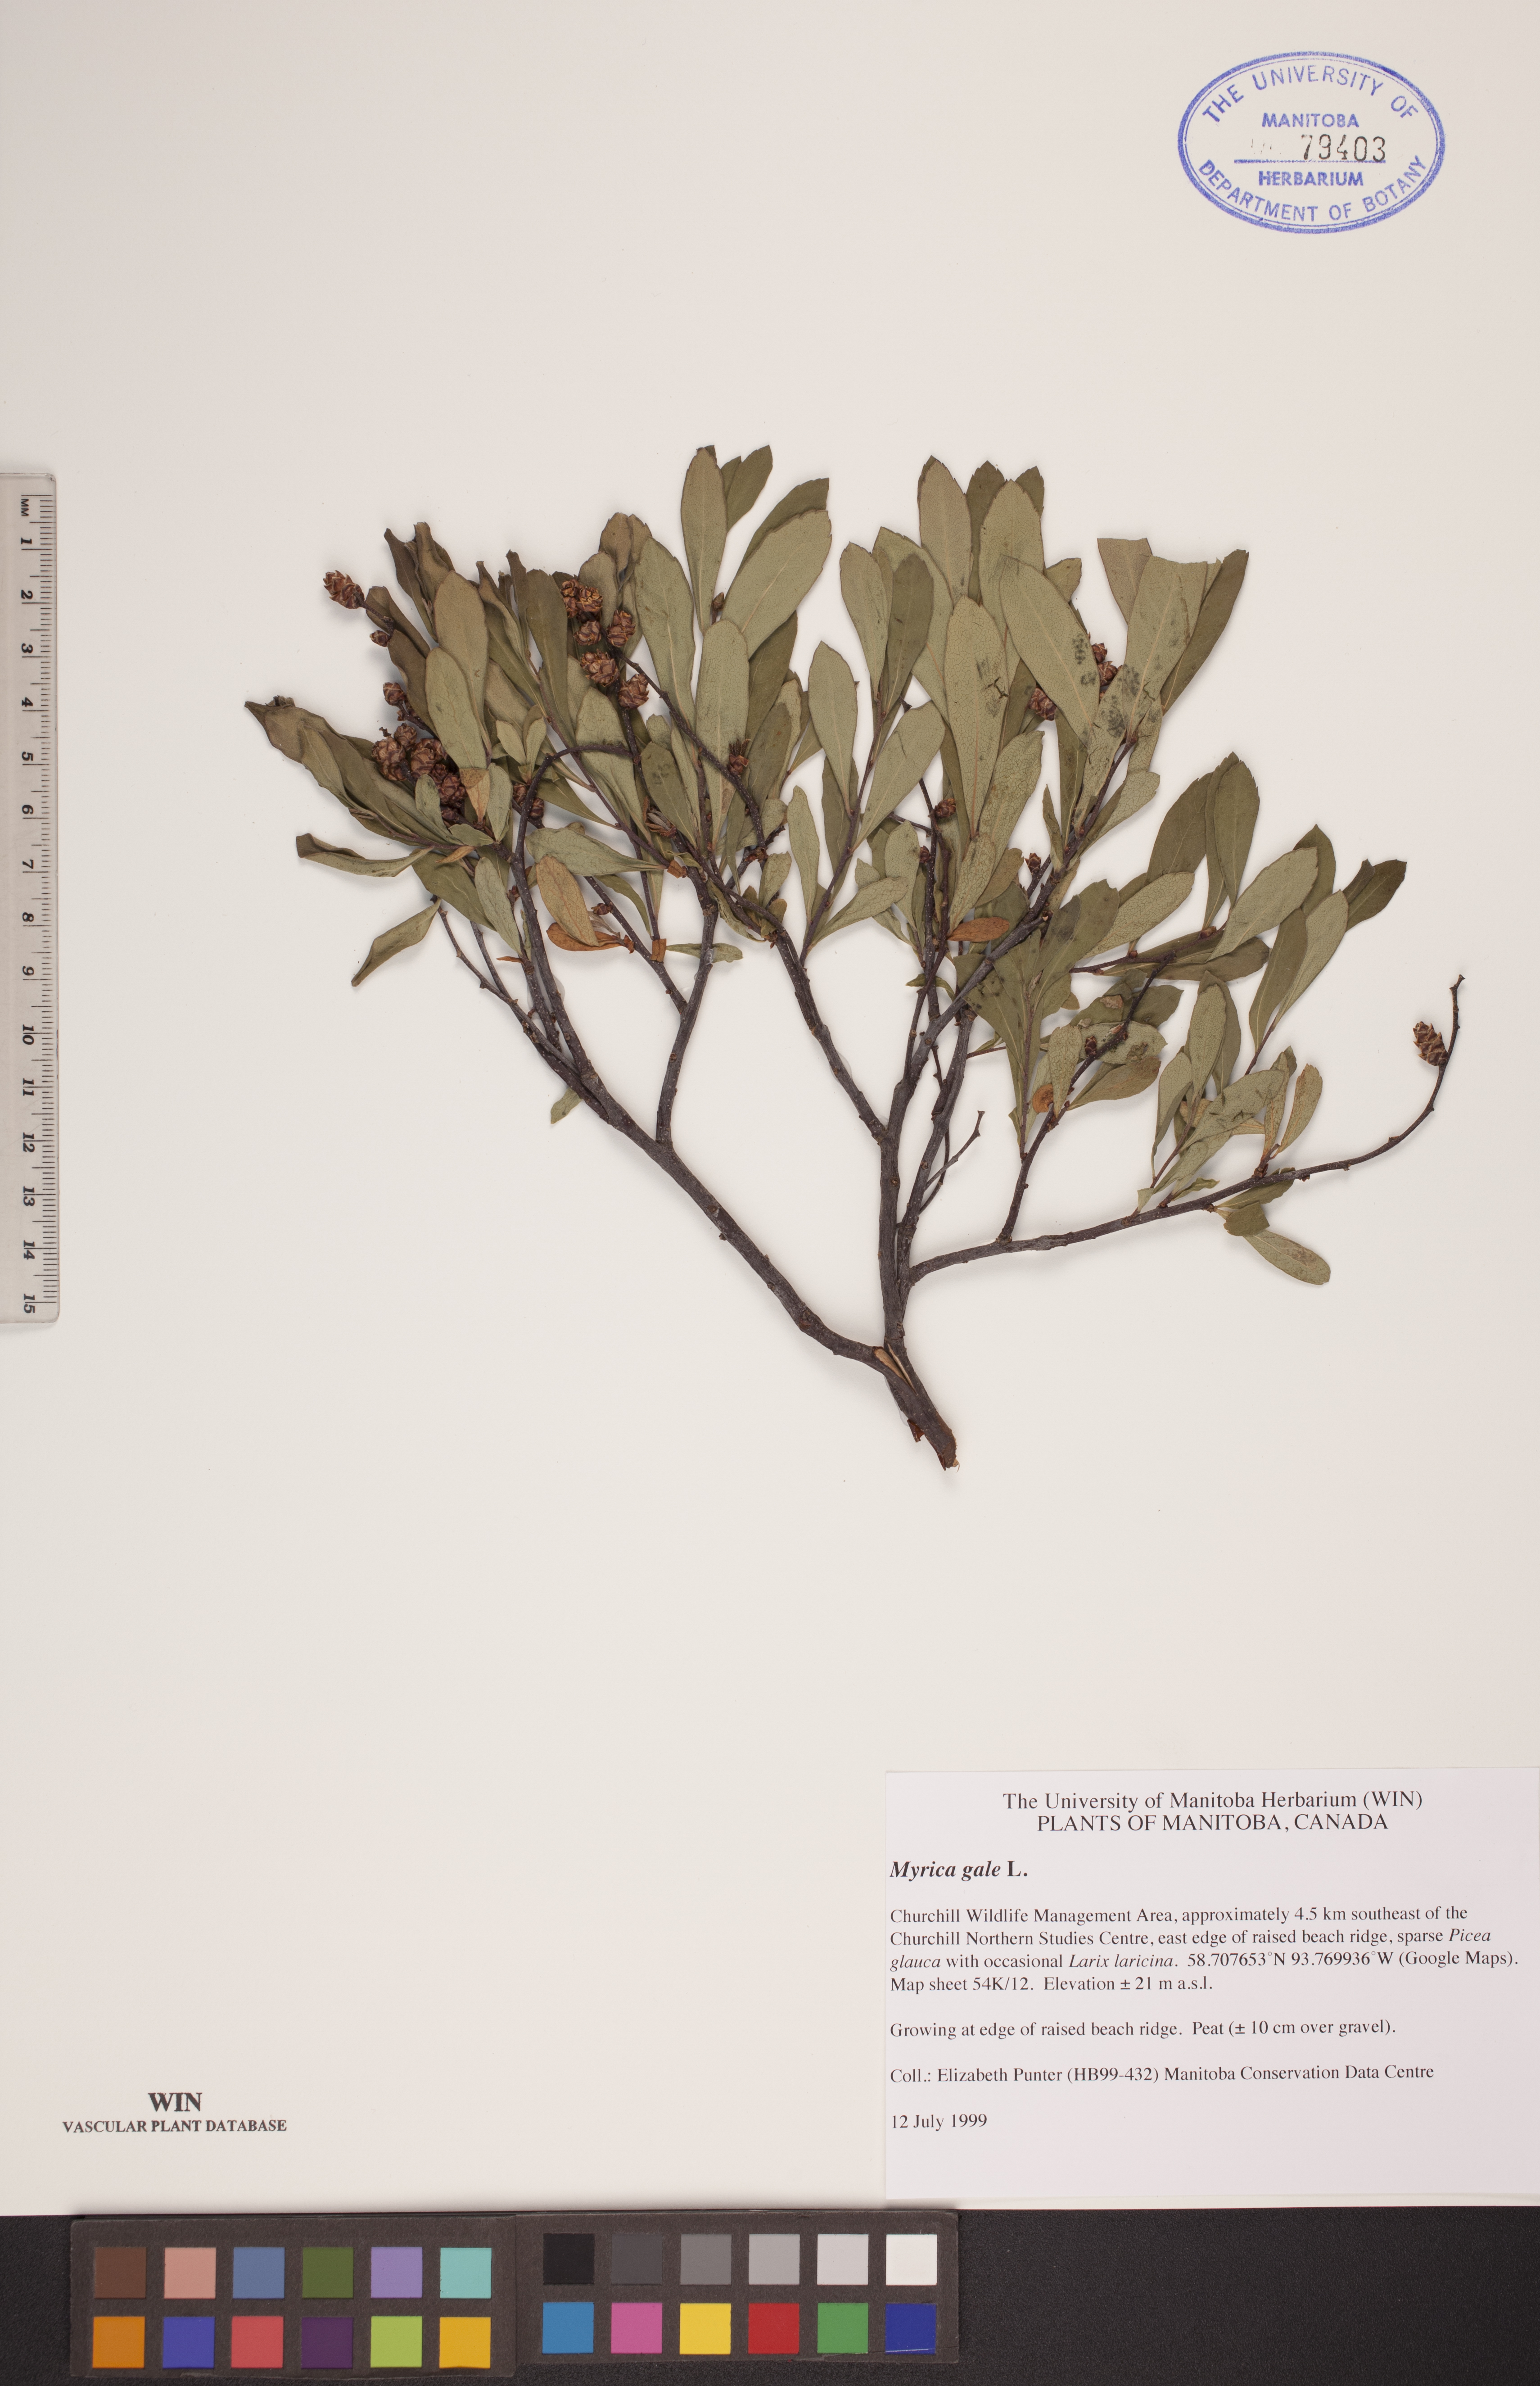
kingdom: Plantae
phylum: Tracheophyta
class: Magnoliopsida
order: Fagales
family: Myricaceae
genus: Myrica
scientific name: Myrica gale
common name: Sweet gale
